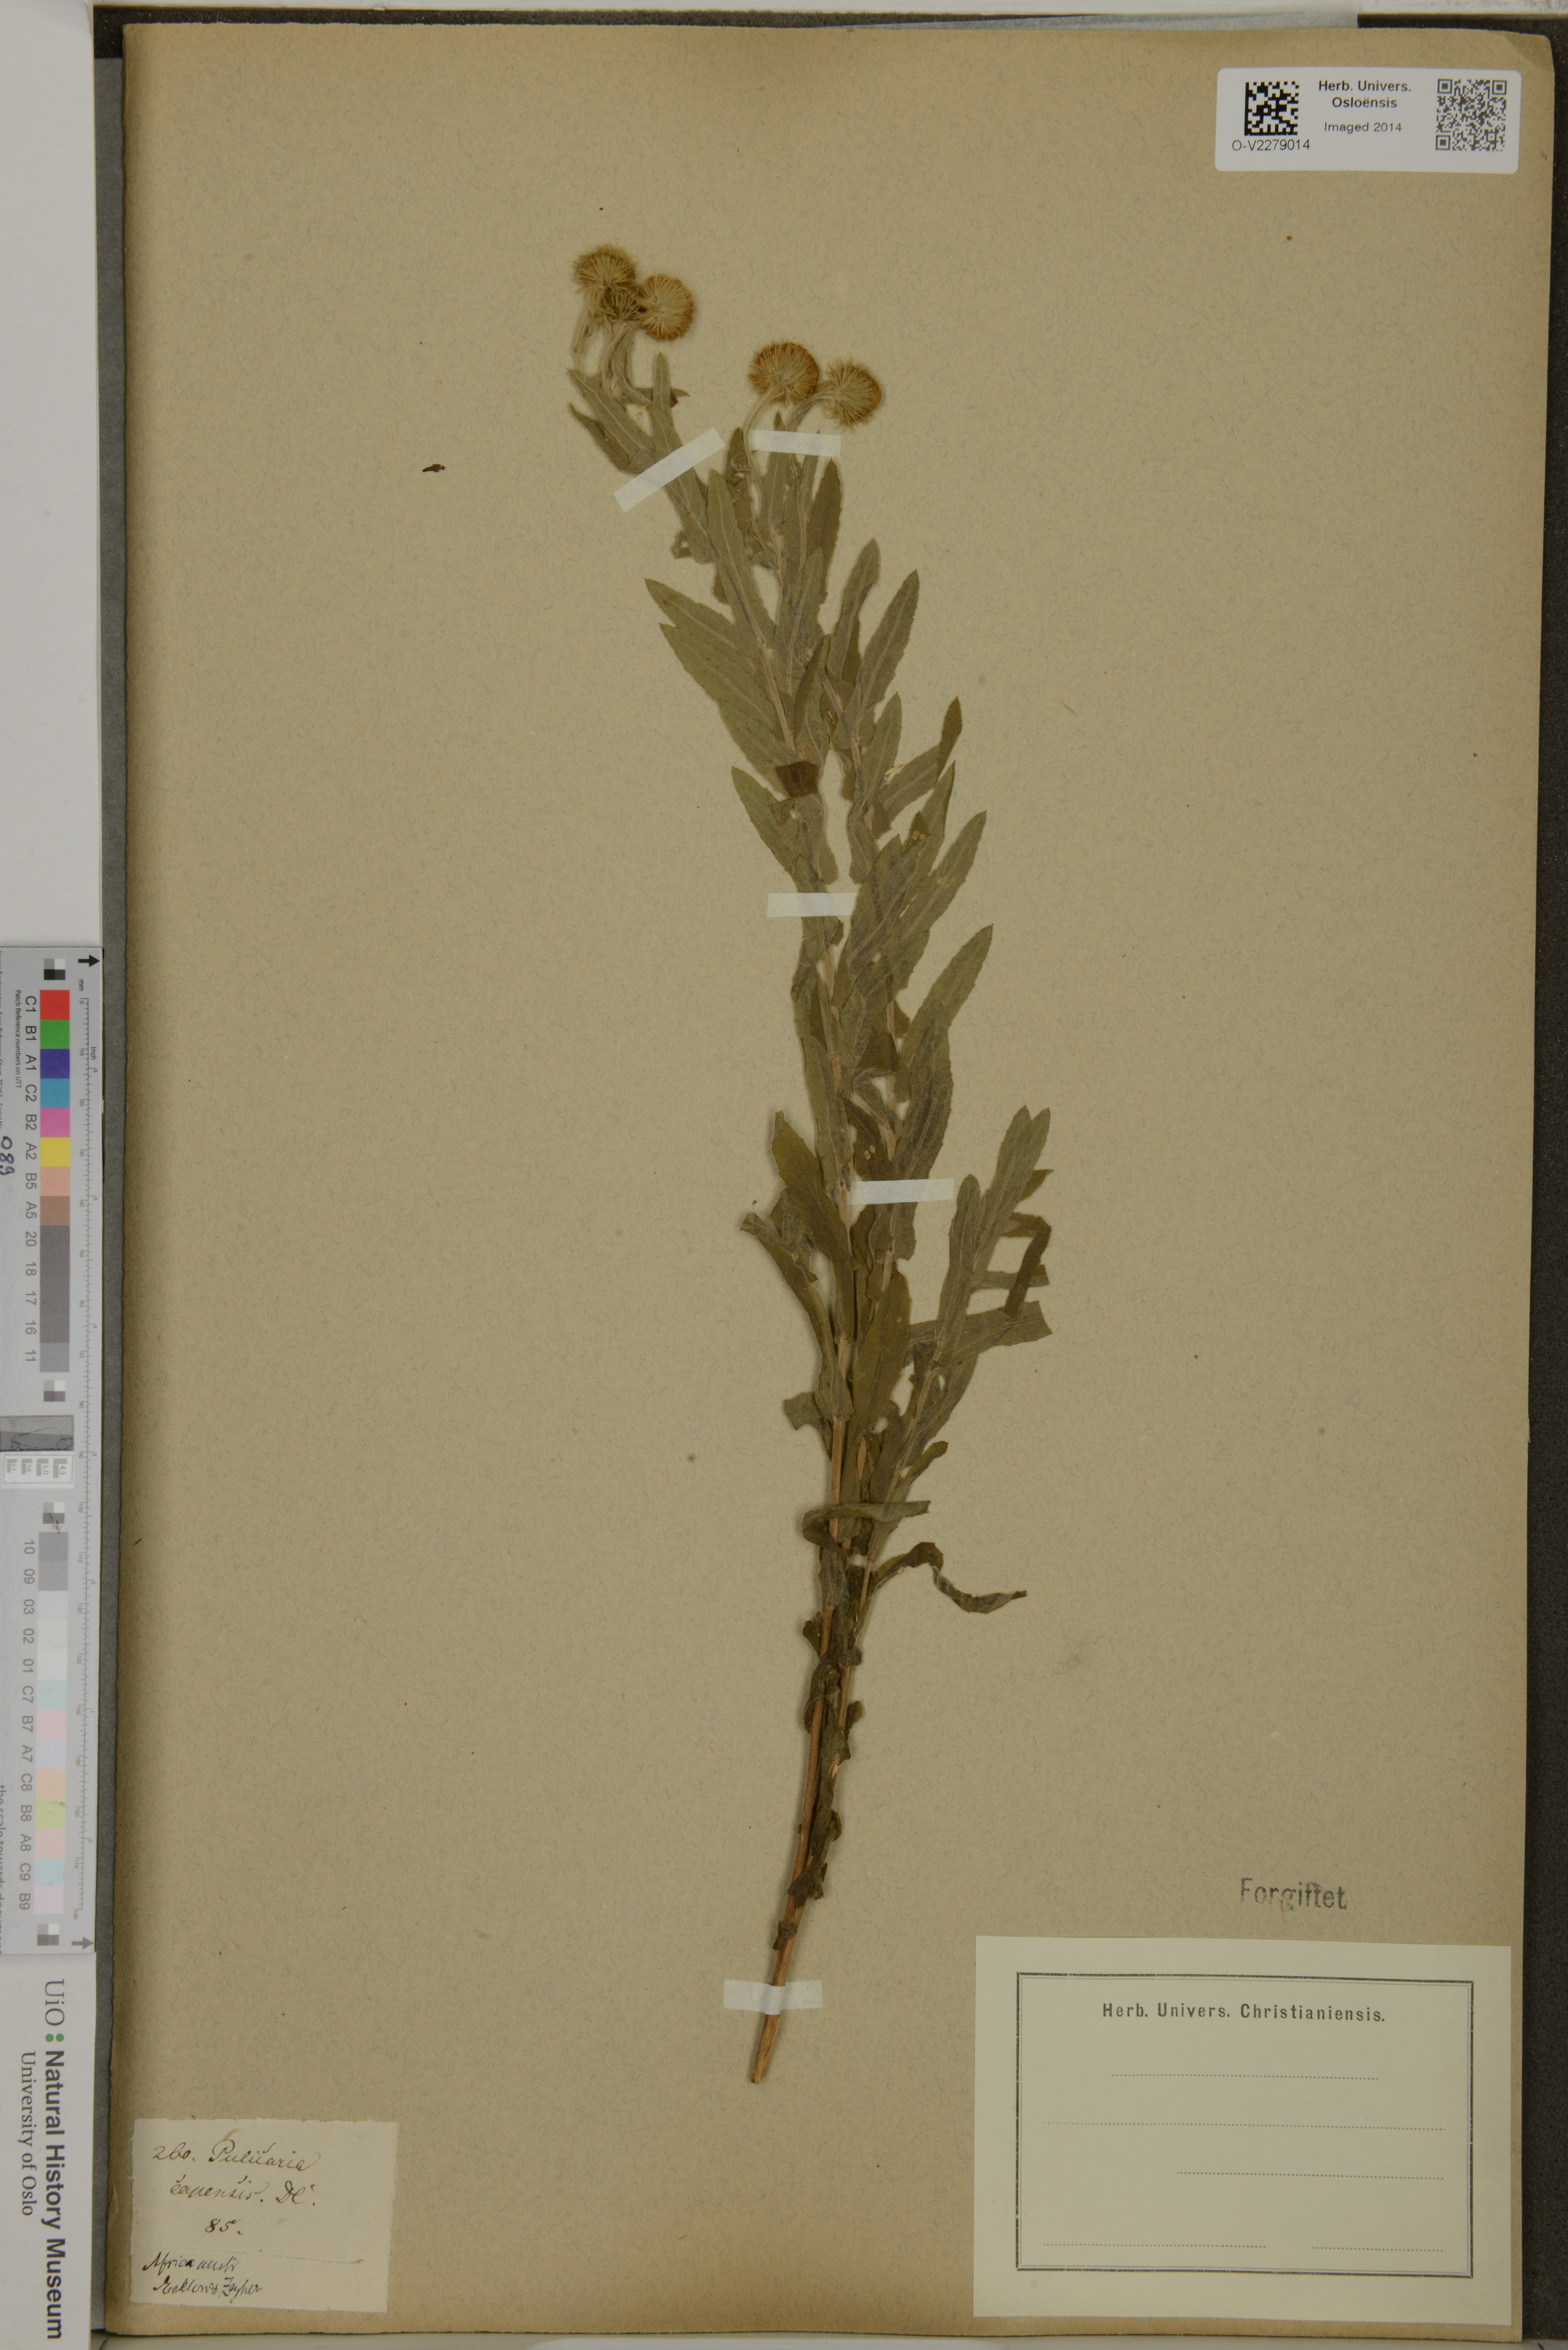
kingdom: Plantae
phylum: Tracheophyta
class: Magnoliopsida
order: Asterales
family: Asteraceae
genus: Pulicaria
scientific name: Pulicaria scabra
